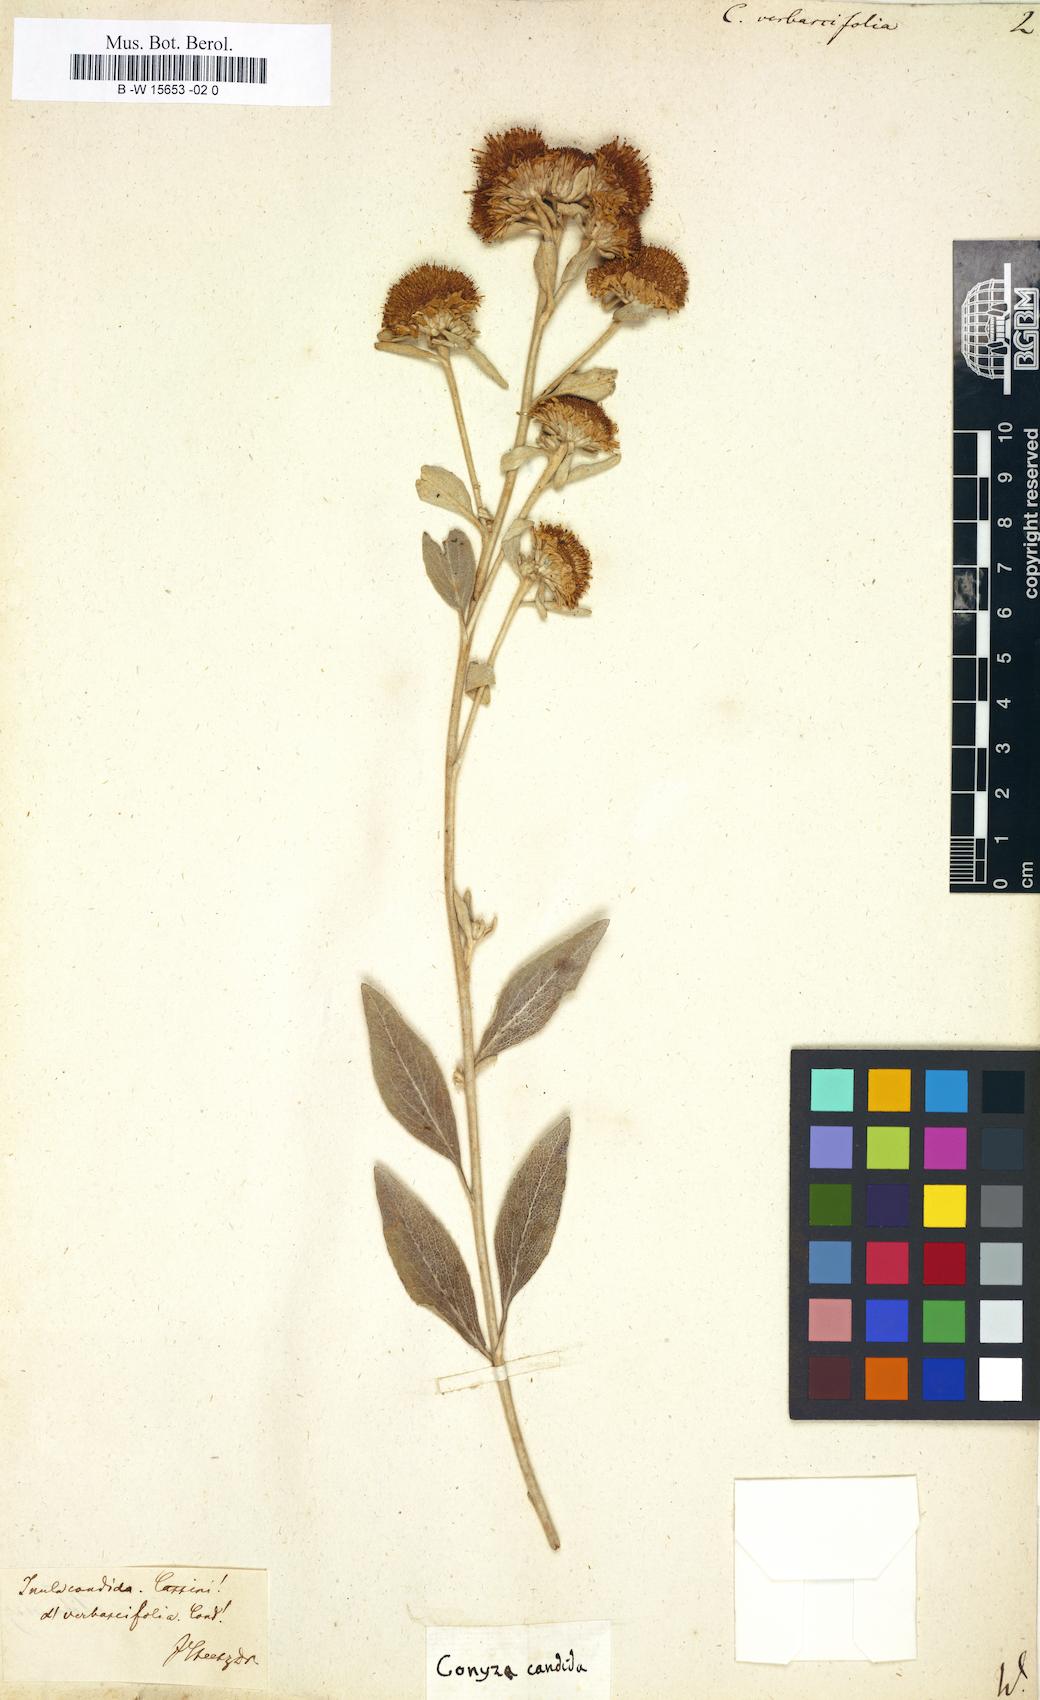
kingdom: Plantae
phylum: Tracheophyta
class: Magnoliopsida
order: Asterales
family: Asteraceae
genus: Pentanema
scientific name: Pentanema verbascifolium
